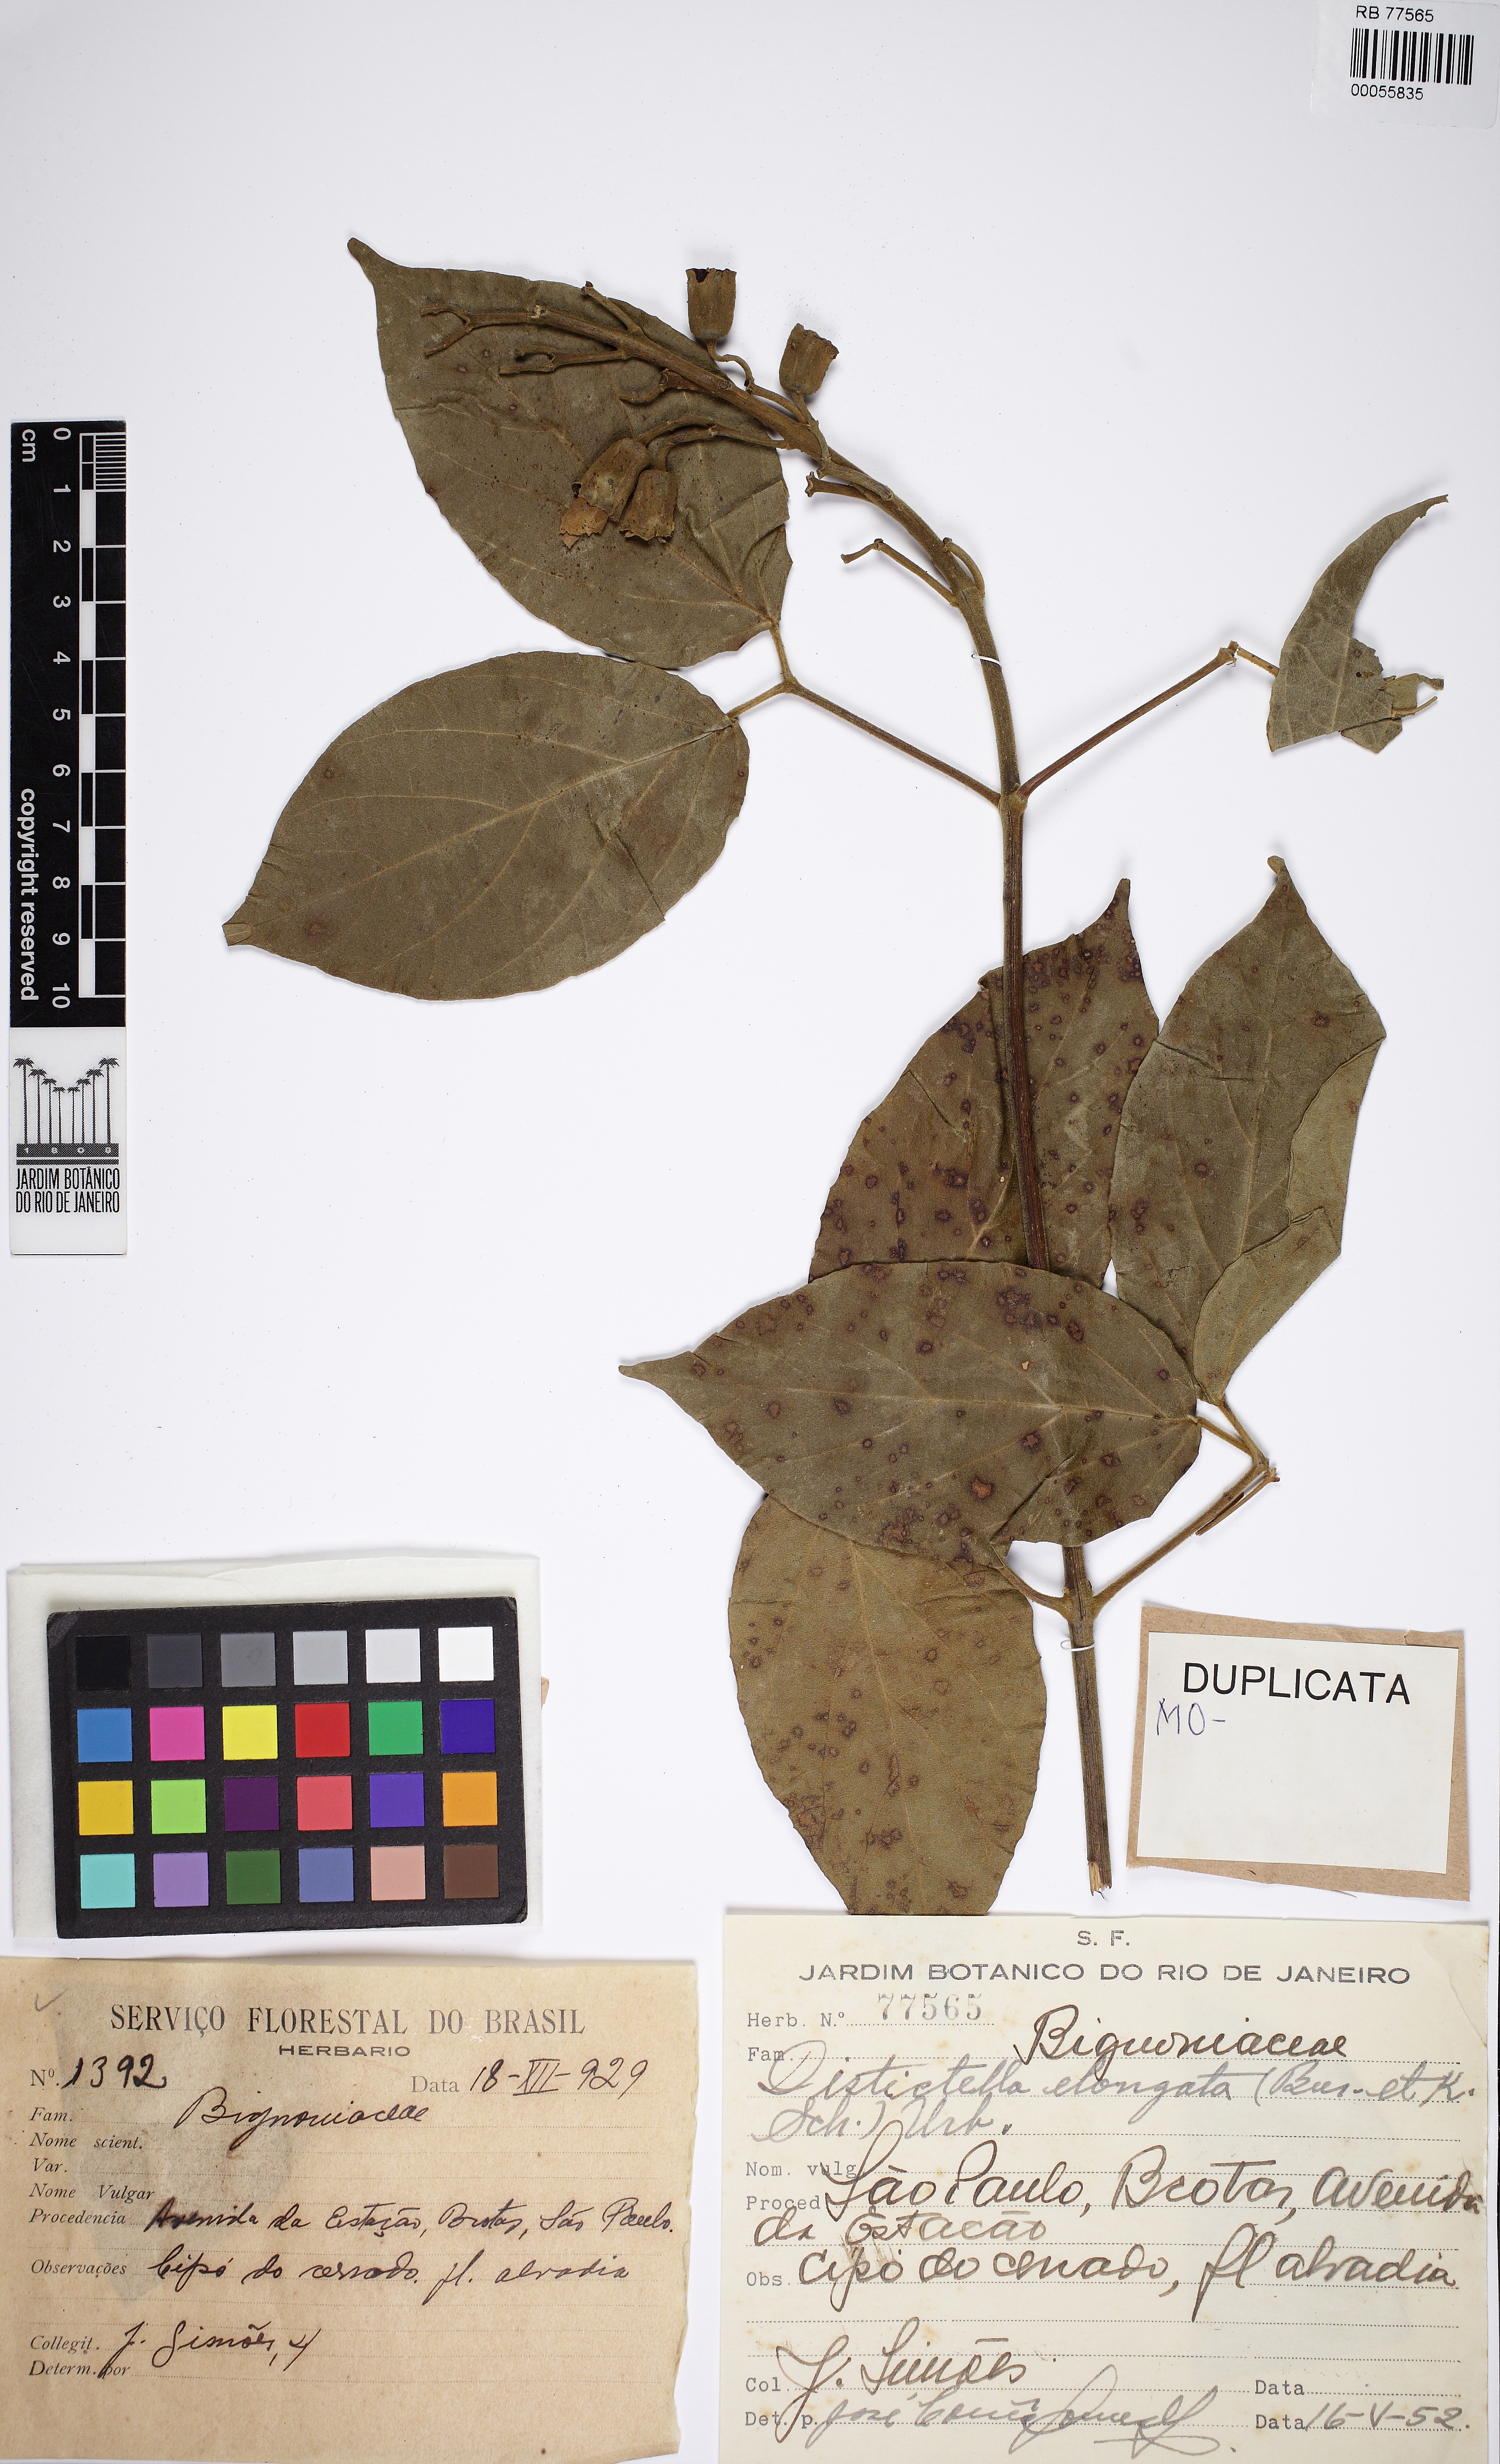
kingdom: Plantae
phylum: Tracheophyta
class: Magnoliopsida
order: Lamiales
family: Bignoniaceae
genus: Amphilophium
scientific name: Amphilophium elongatum
